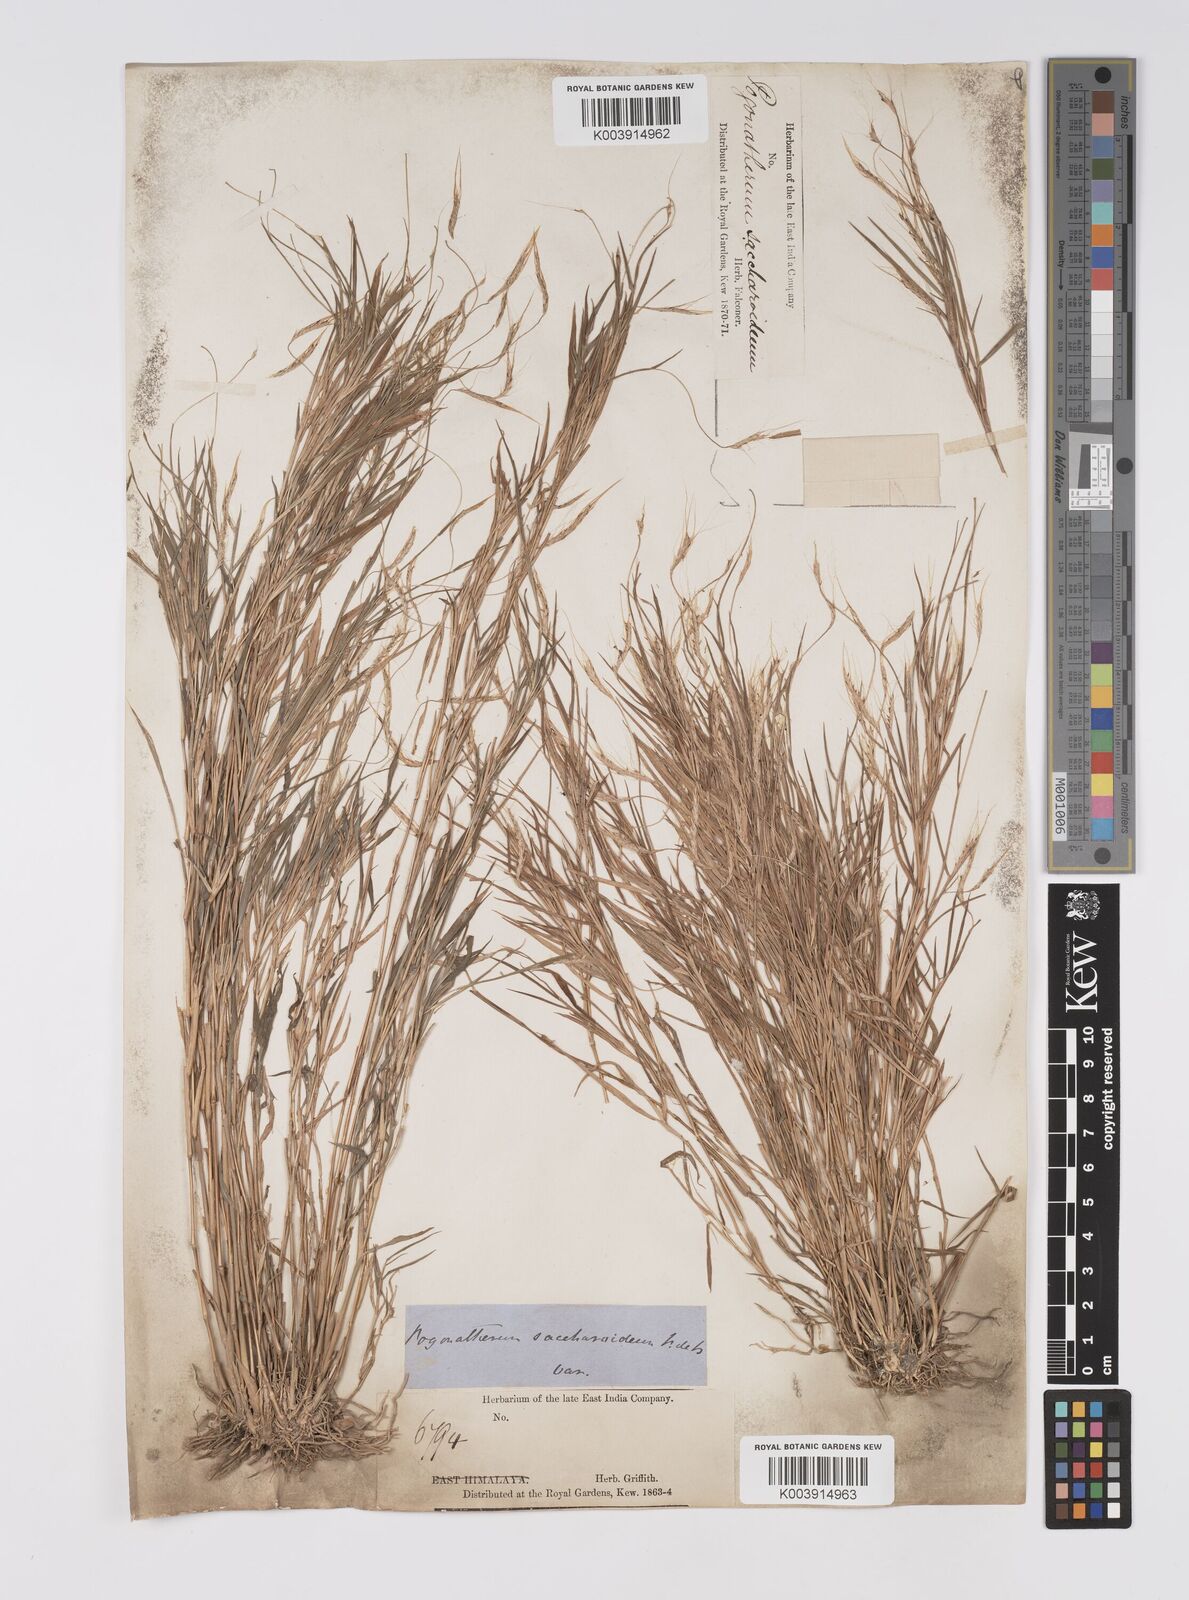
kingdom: Plantae
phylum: Tracheophyta
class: Liliopsida
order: Poales
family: Poaceae
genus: Pogonatherum
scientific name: Pogonatherum paniceum
